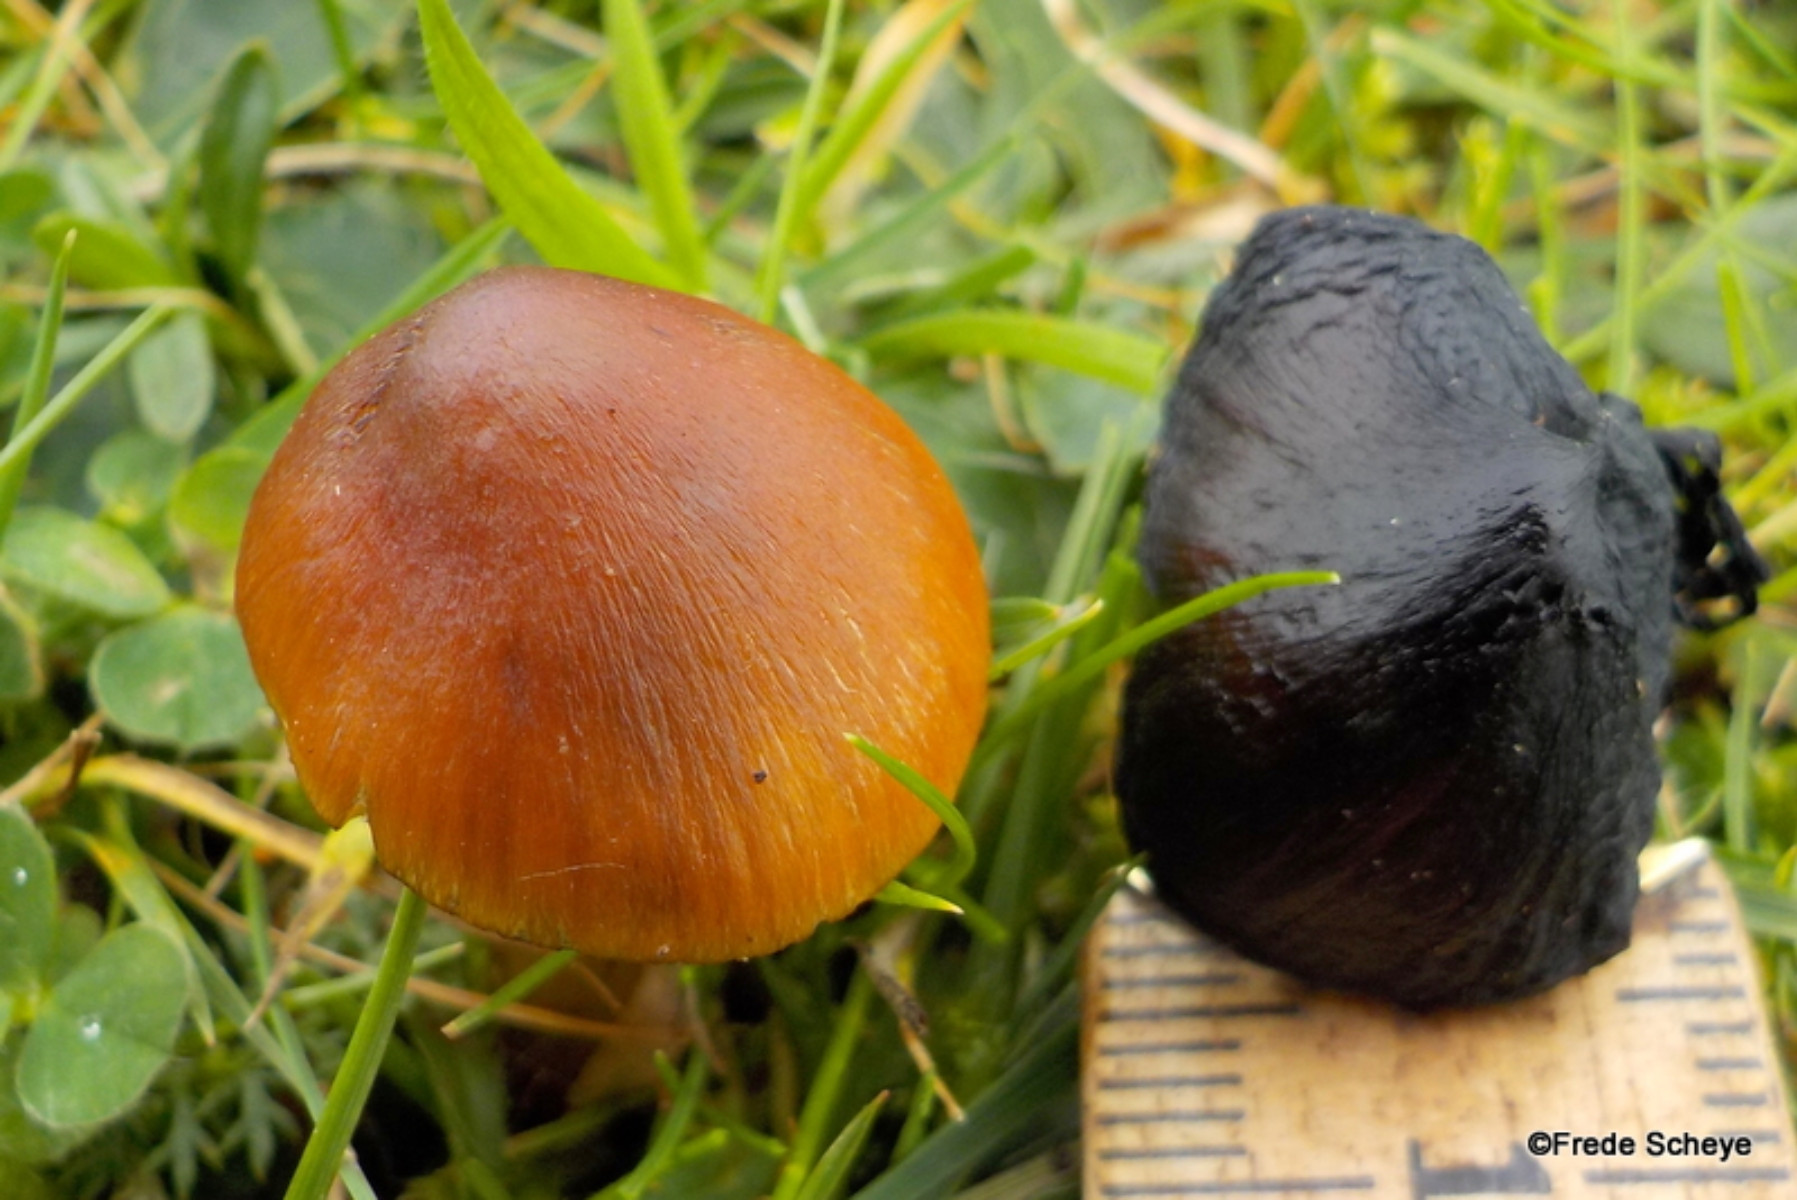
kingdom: Fungi
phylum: Basidiomycota
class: Agaricomycetes
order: Agaricales
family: Hygrophoraceae
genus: Hygrocybe
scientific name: Hygrocybe conica
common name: kegle-vokshat
